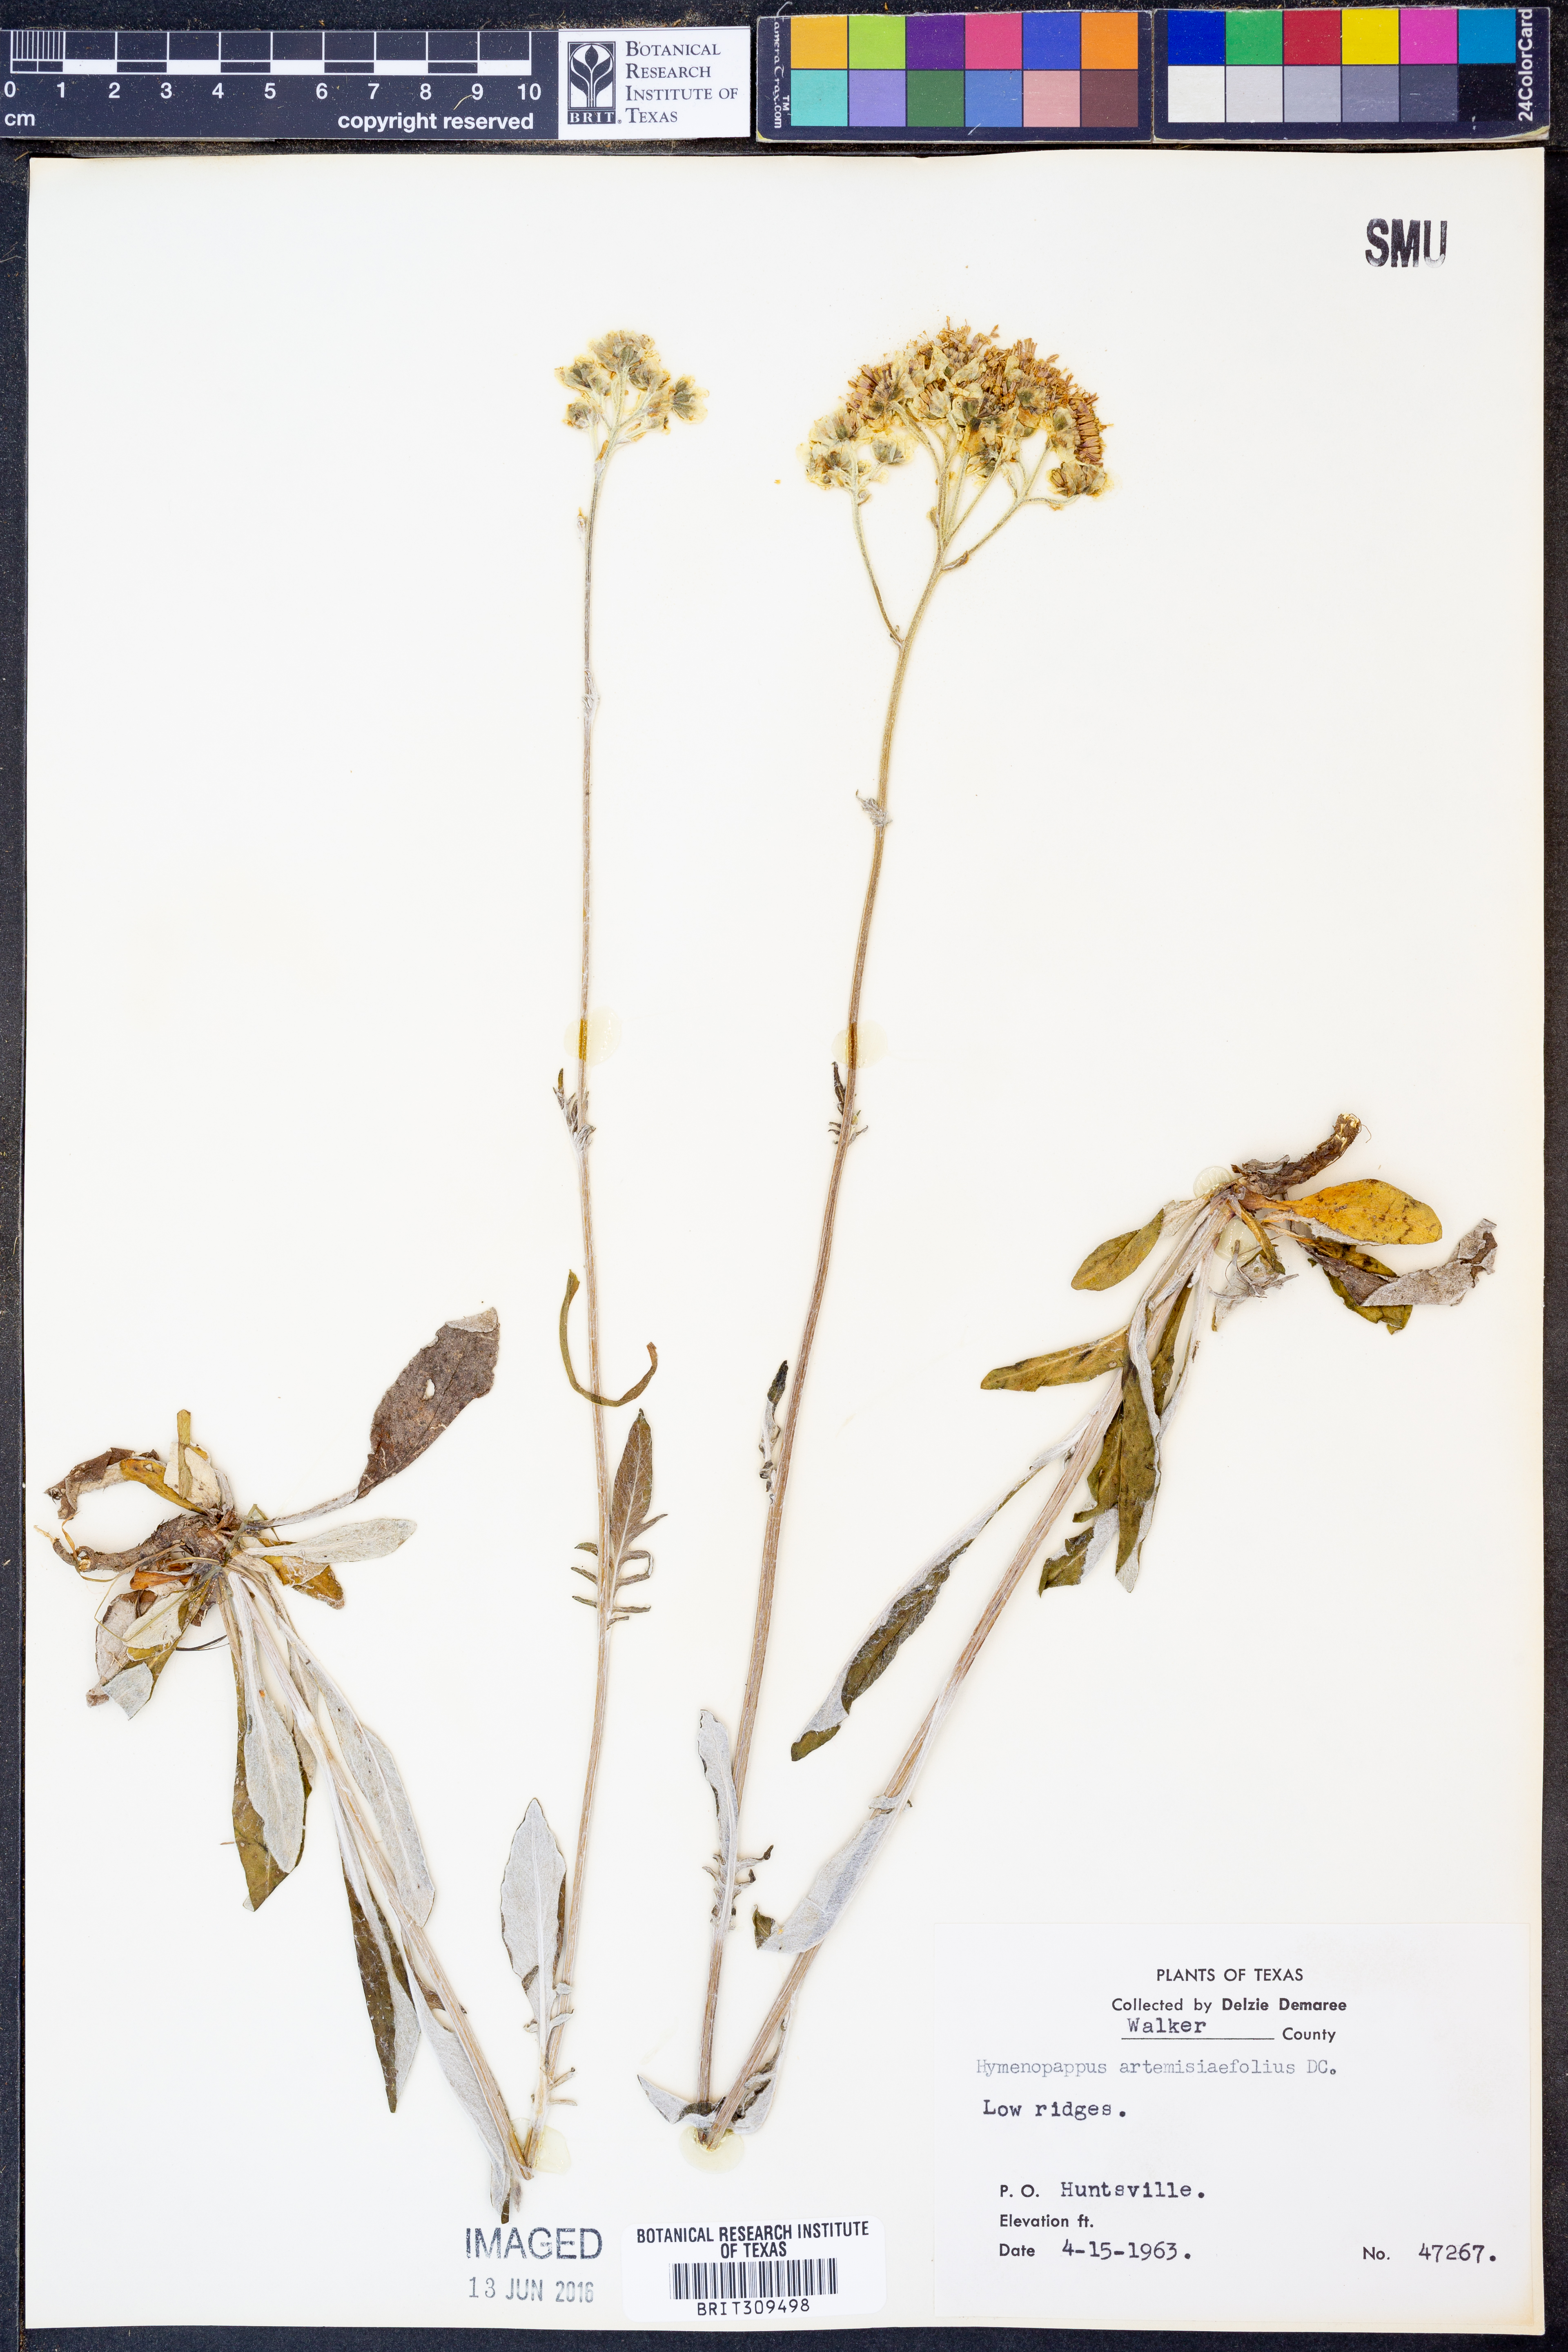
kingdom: Plantae
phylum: Tracheophyta
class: Magnoliopsida
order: Asterales
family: Asteraceae
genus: Hymenopappus
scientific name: Hymenopappus artemisiifolius
